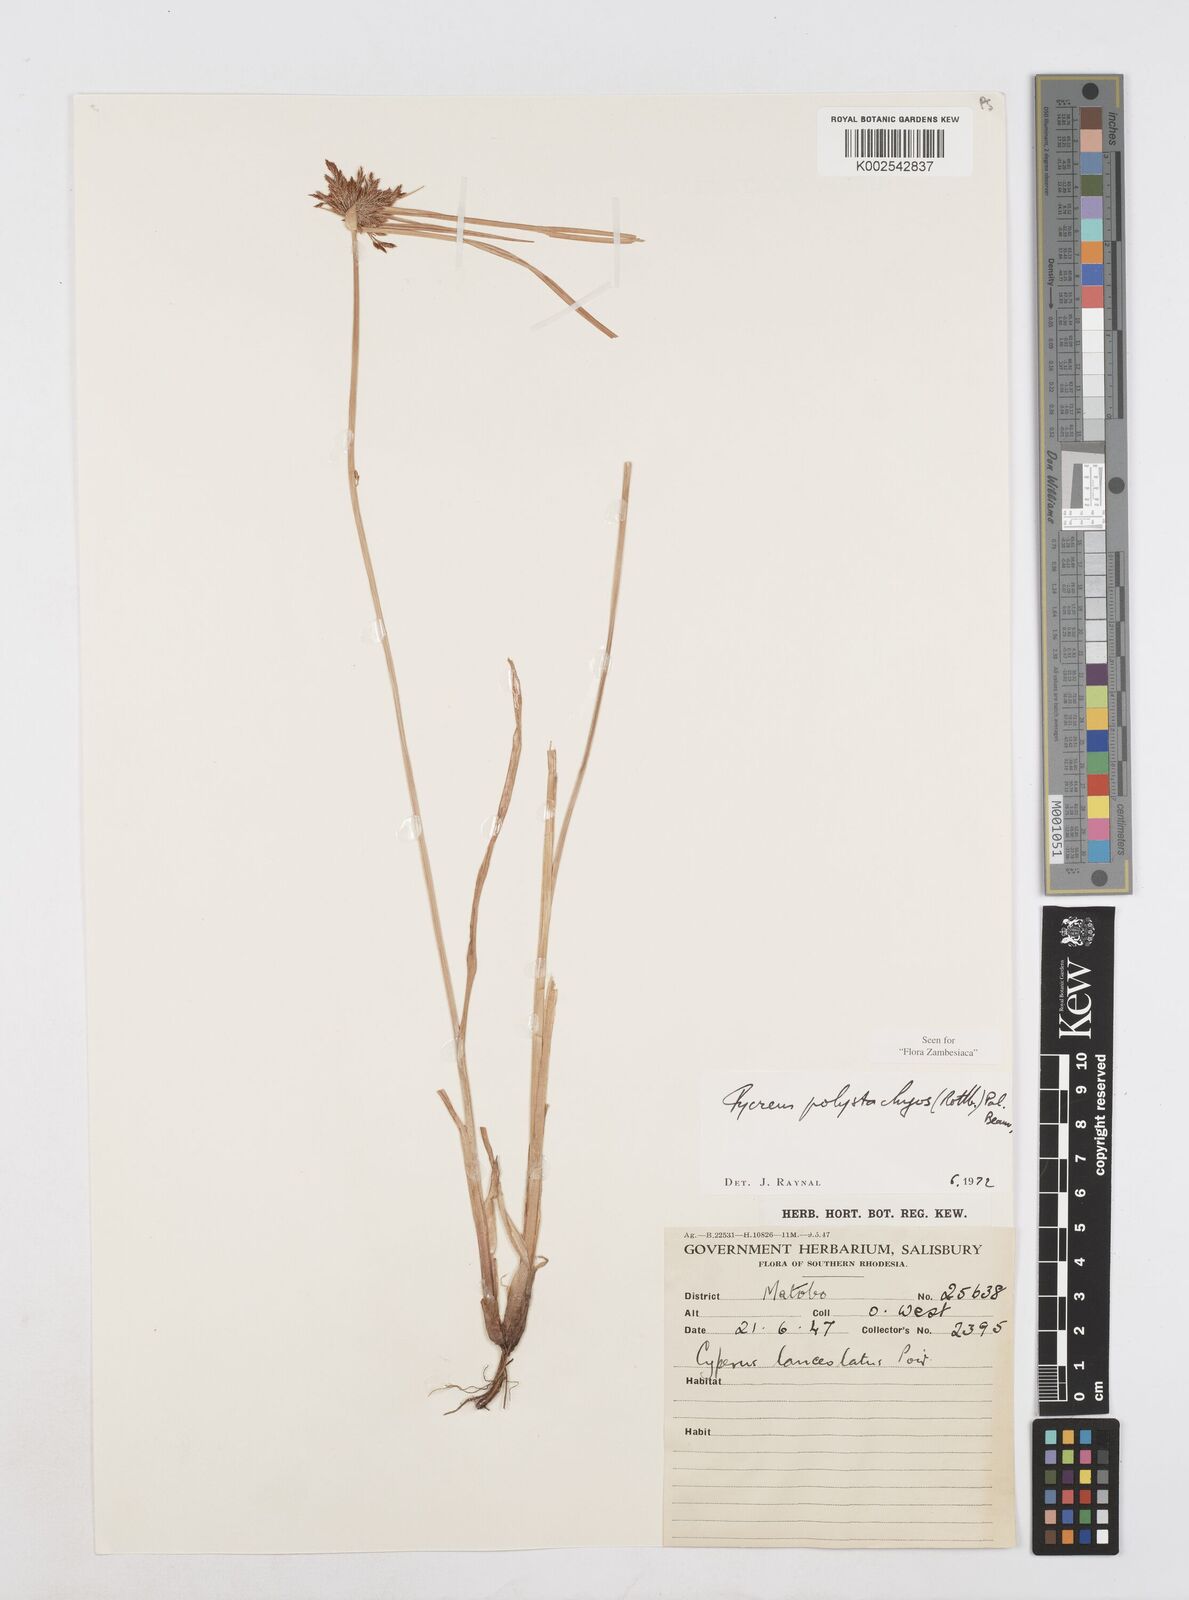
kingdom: Plantae
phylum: Tracheophyta
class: Liliopsida
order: Poales
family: Cyperaceae
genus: Cyperus
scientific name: Cyperus polystachyos
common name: Bunchy flat sedge
